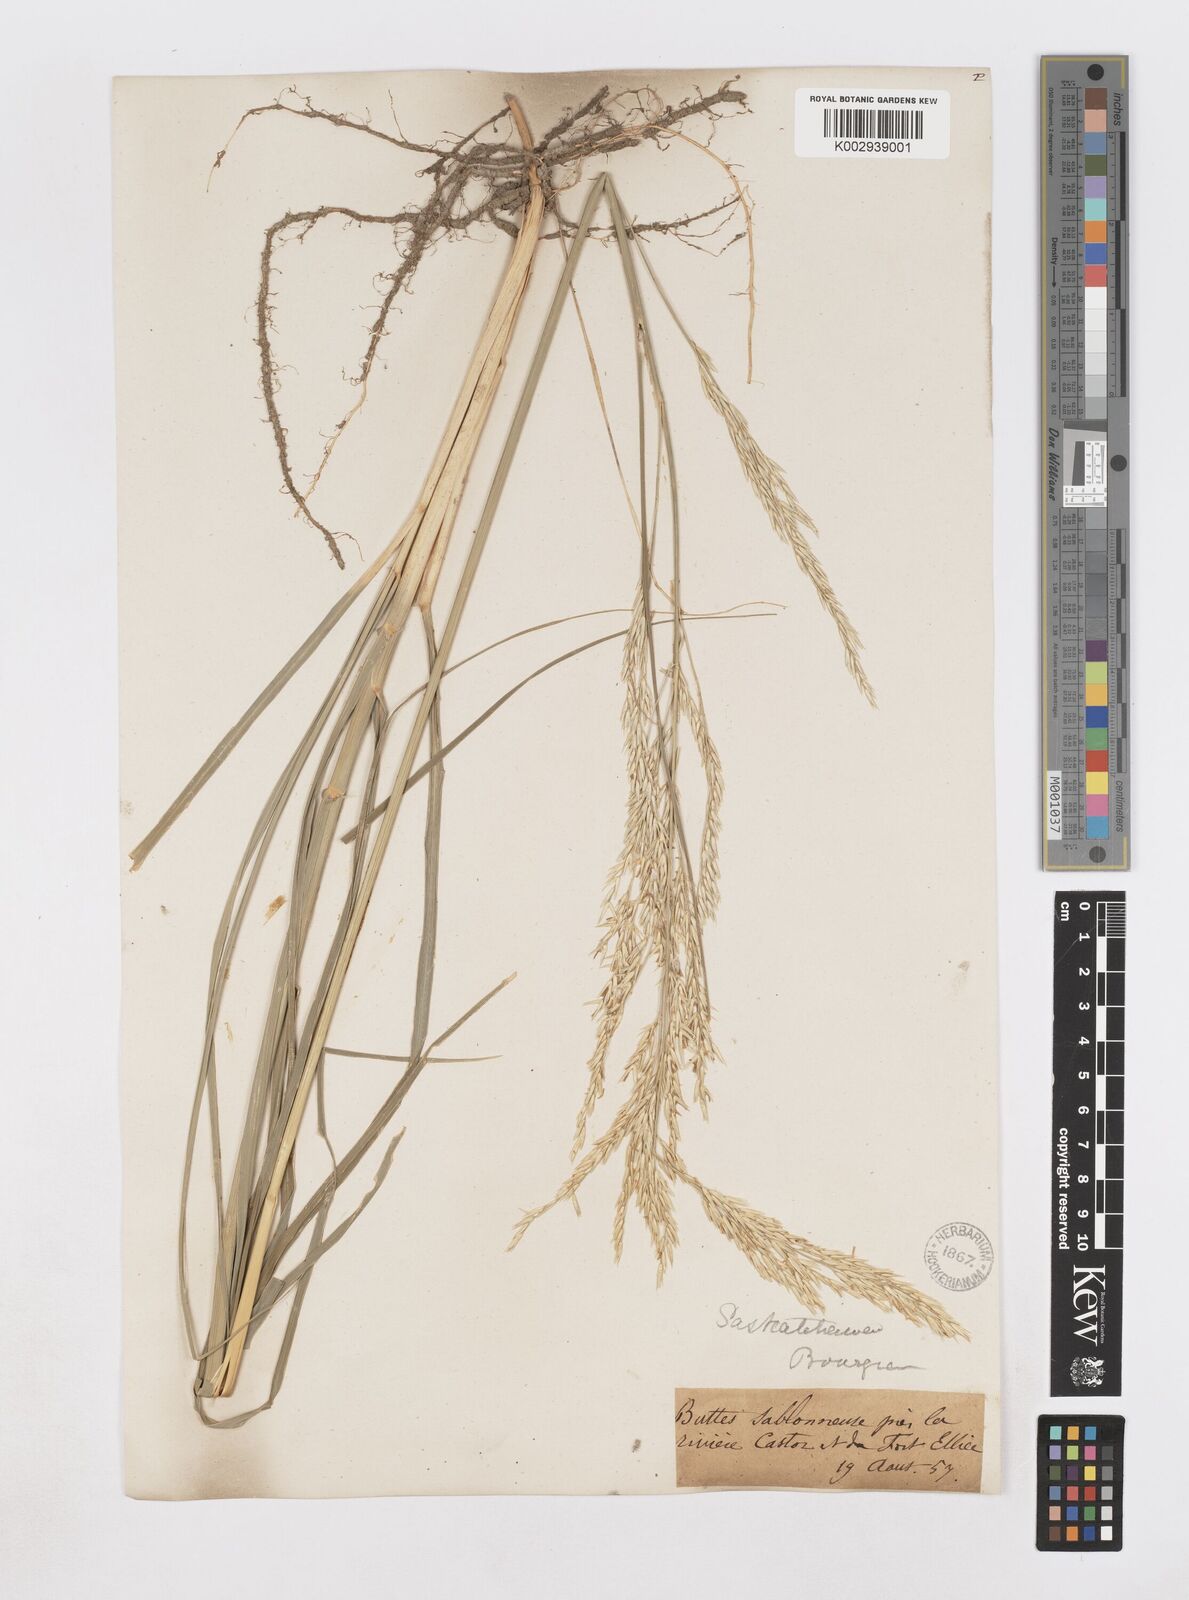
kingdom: Plantae
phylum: Tracheophyta
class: Liliopsida
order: Poales
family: Poaceae
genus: Sporobolus
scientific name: Sporobolus rigidus
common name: Prairie sandreed
